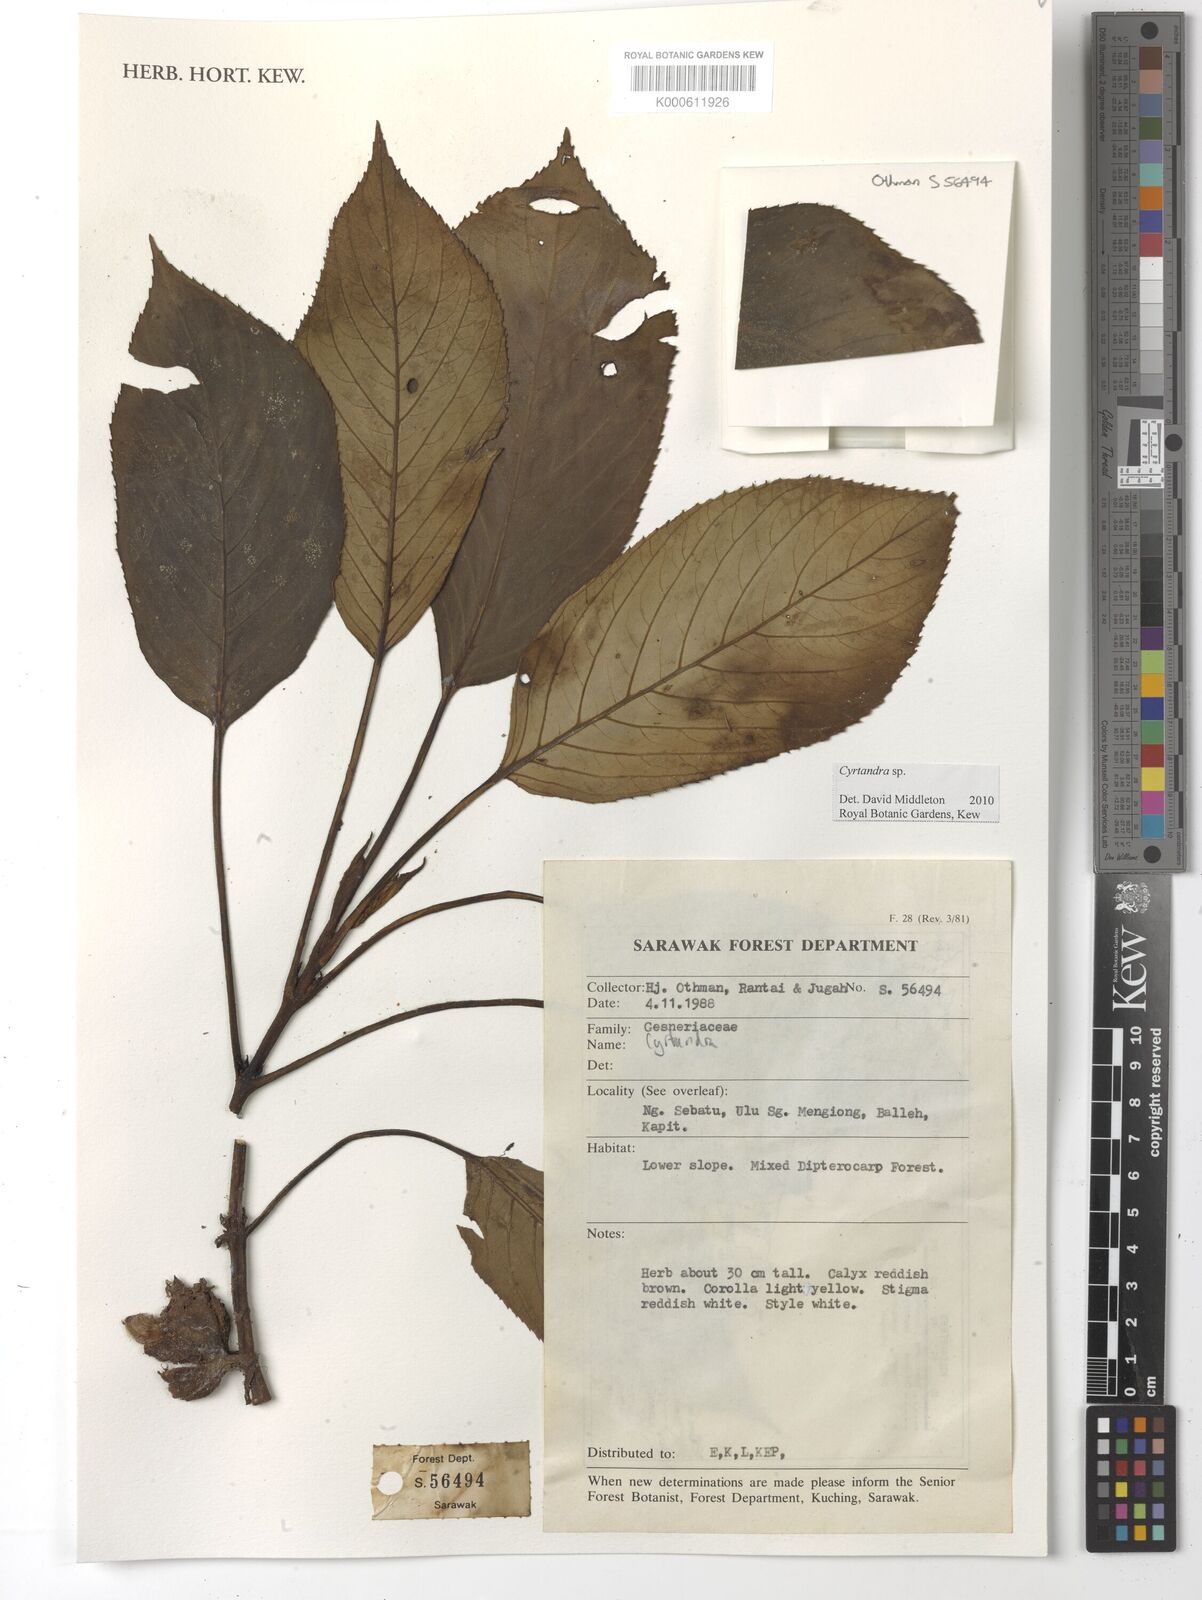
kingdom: Plantae
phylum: Tracheophyta
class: Magnoliopsida
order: Lamiales
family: Gesneriaceae
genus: Cyrtandra
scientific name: Cyrtandra
